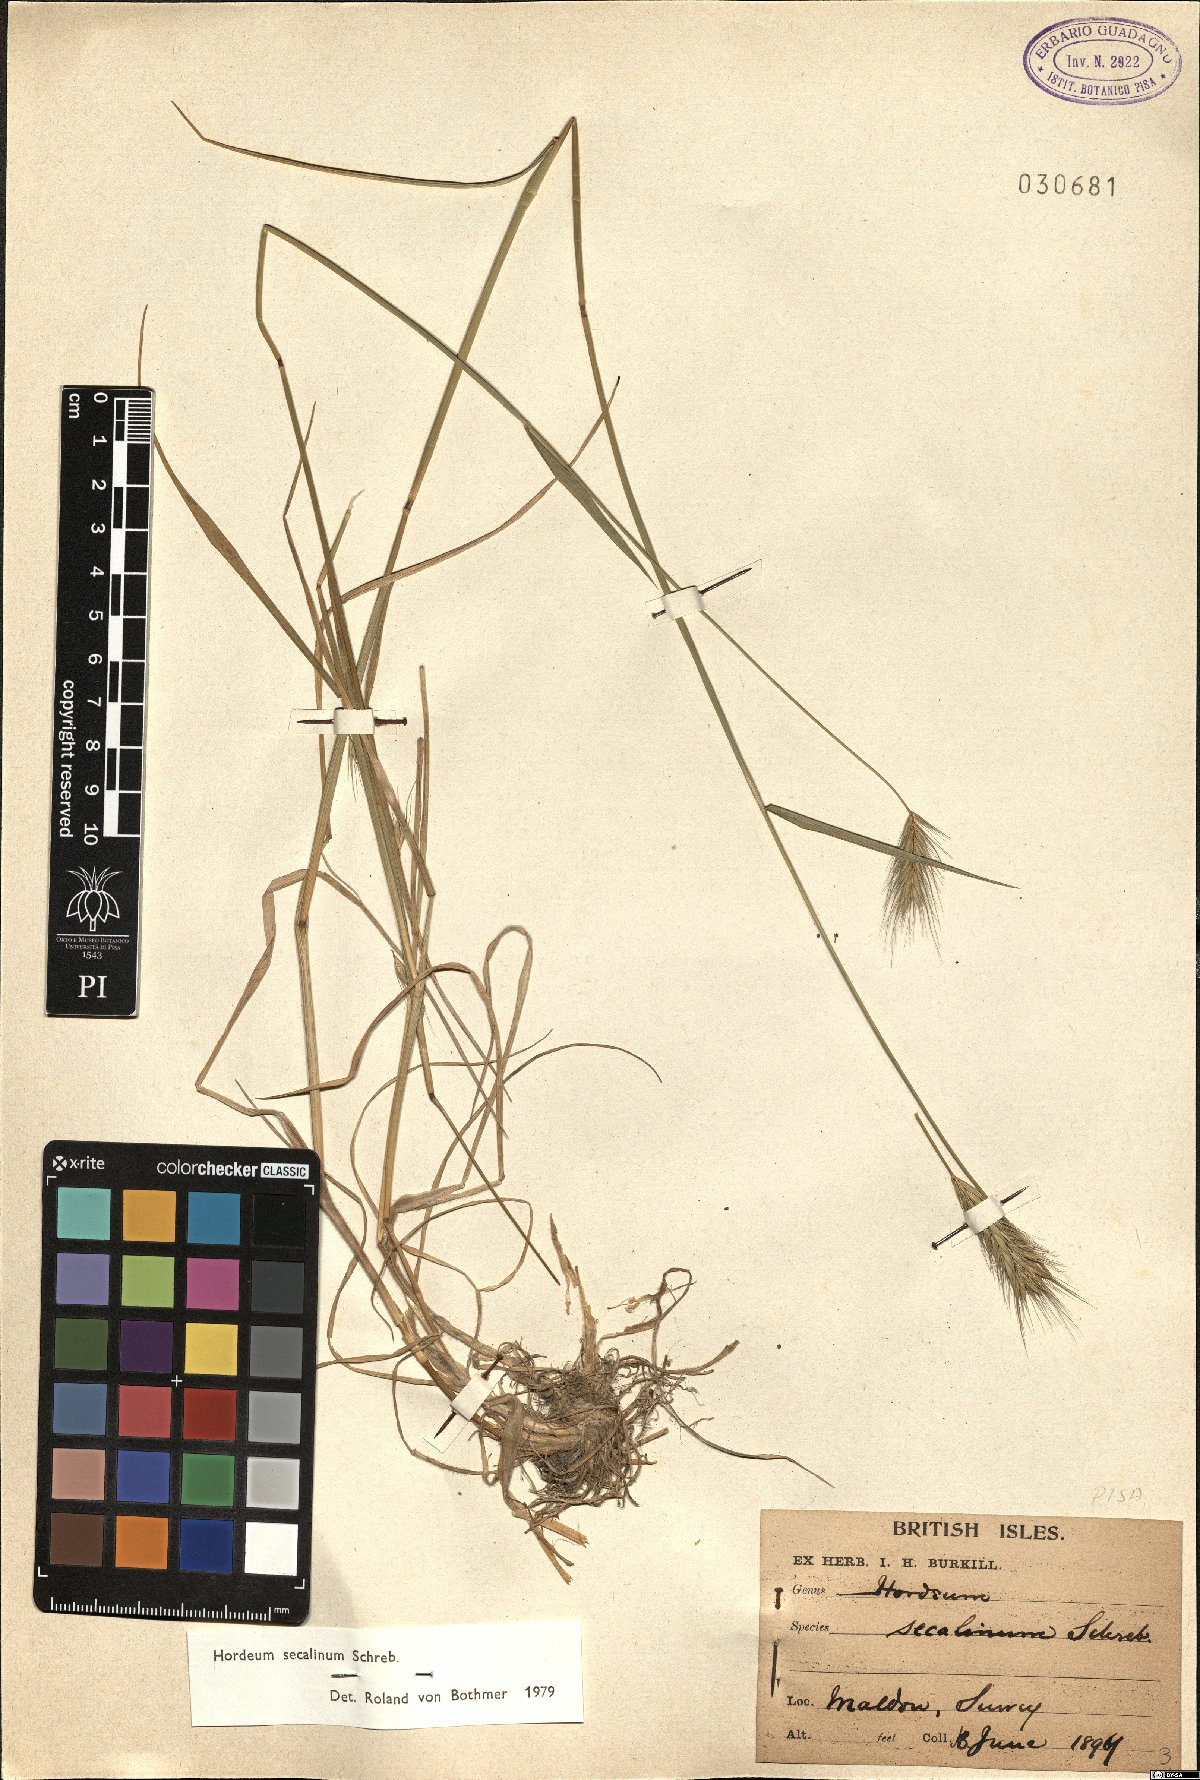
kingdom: Plantae
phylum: Tracheophyta
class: Liliopsida
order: Poales
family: Poaceae
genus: Hordeum
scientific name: Hordeum secalinum
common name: Meadow barley
